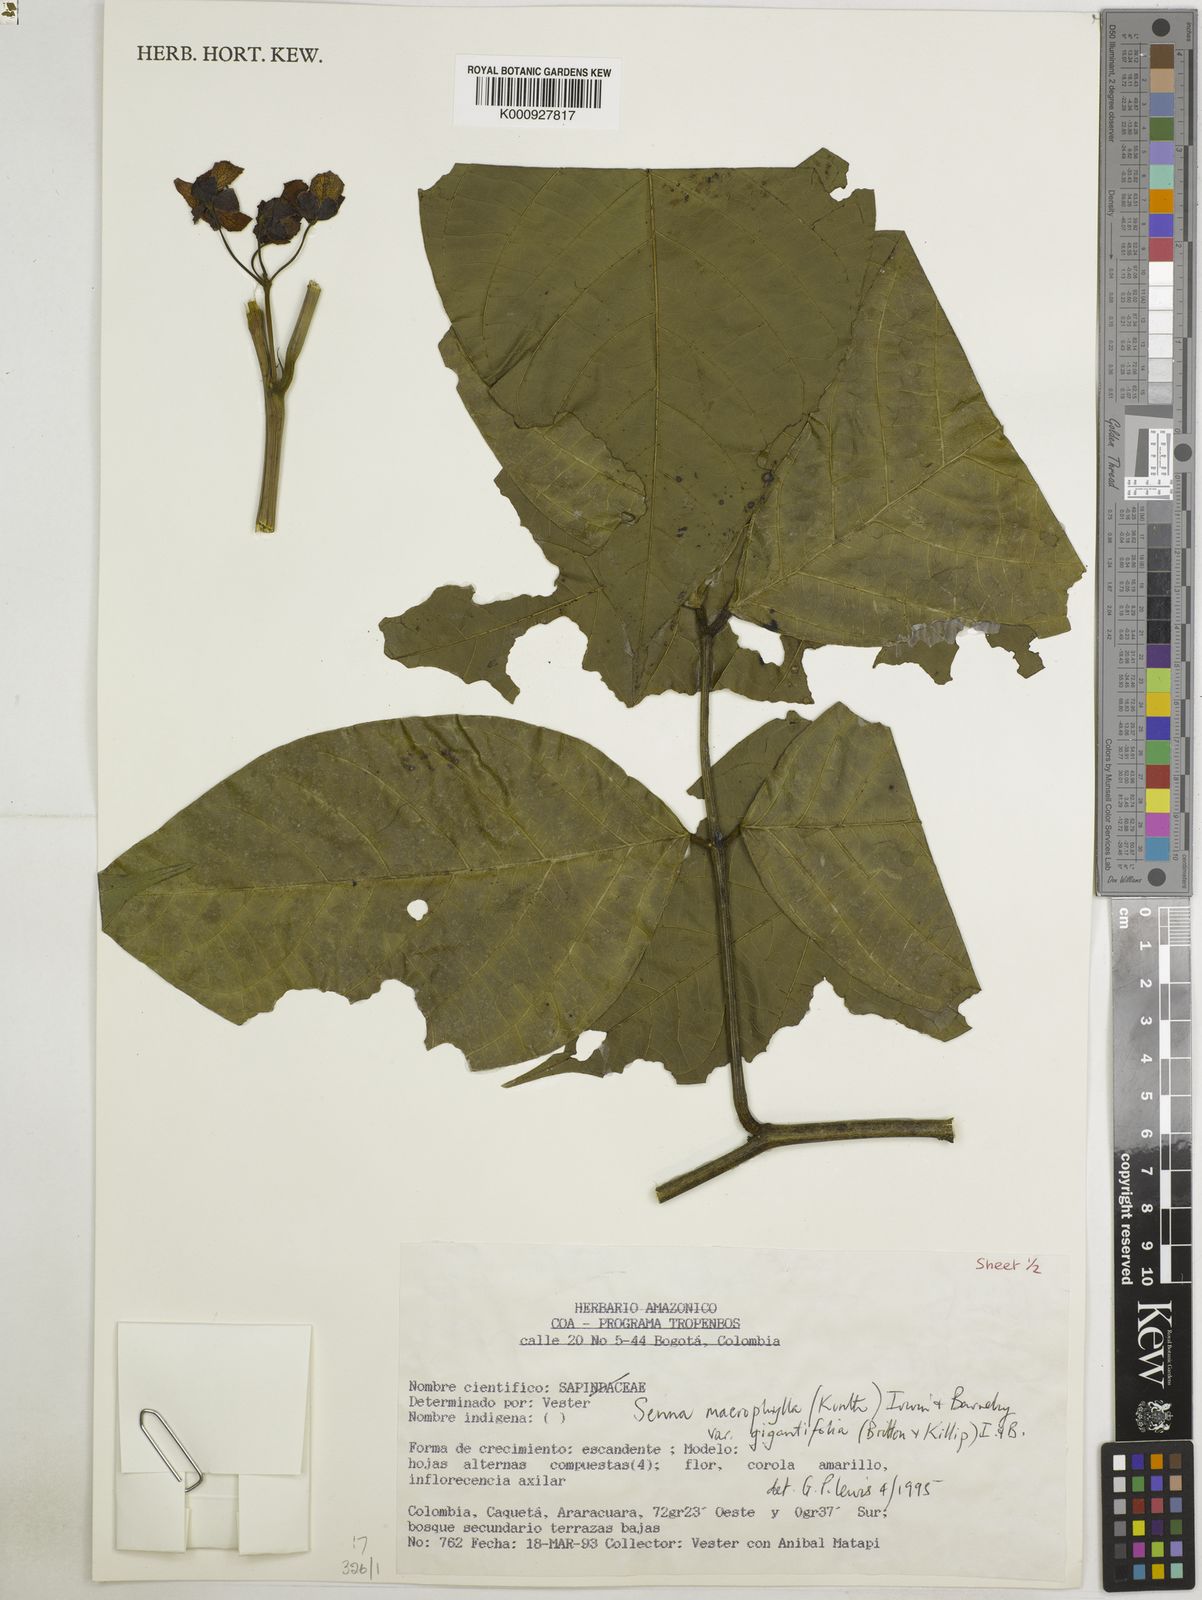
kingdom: Plantae
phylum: Tracheophyta
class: Magnoliopsida
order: Fabales
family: Fabaceae
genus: Senna
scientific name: Senna macrophylla
